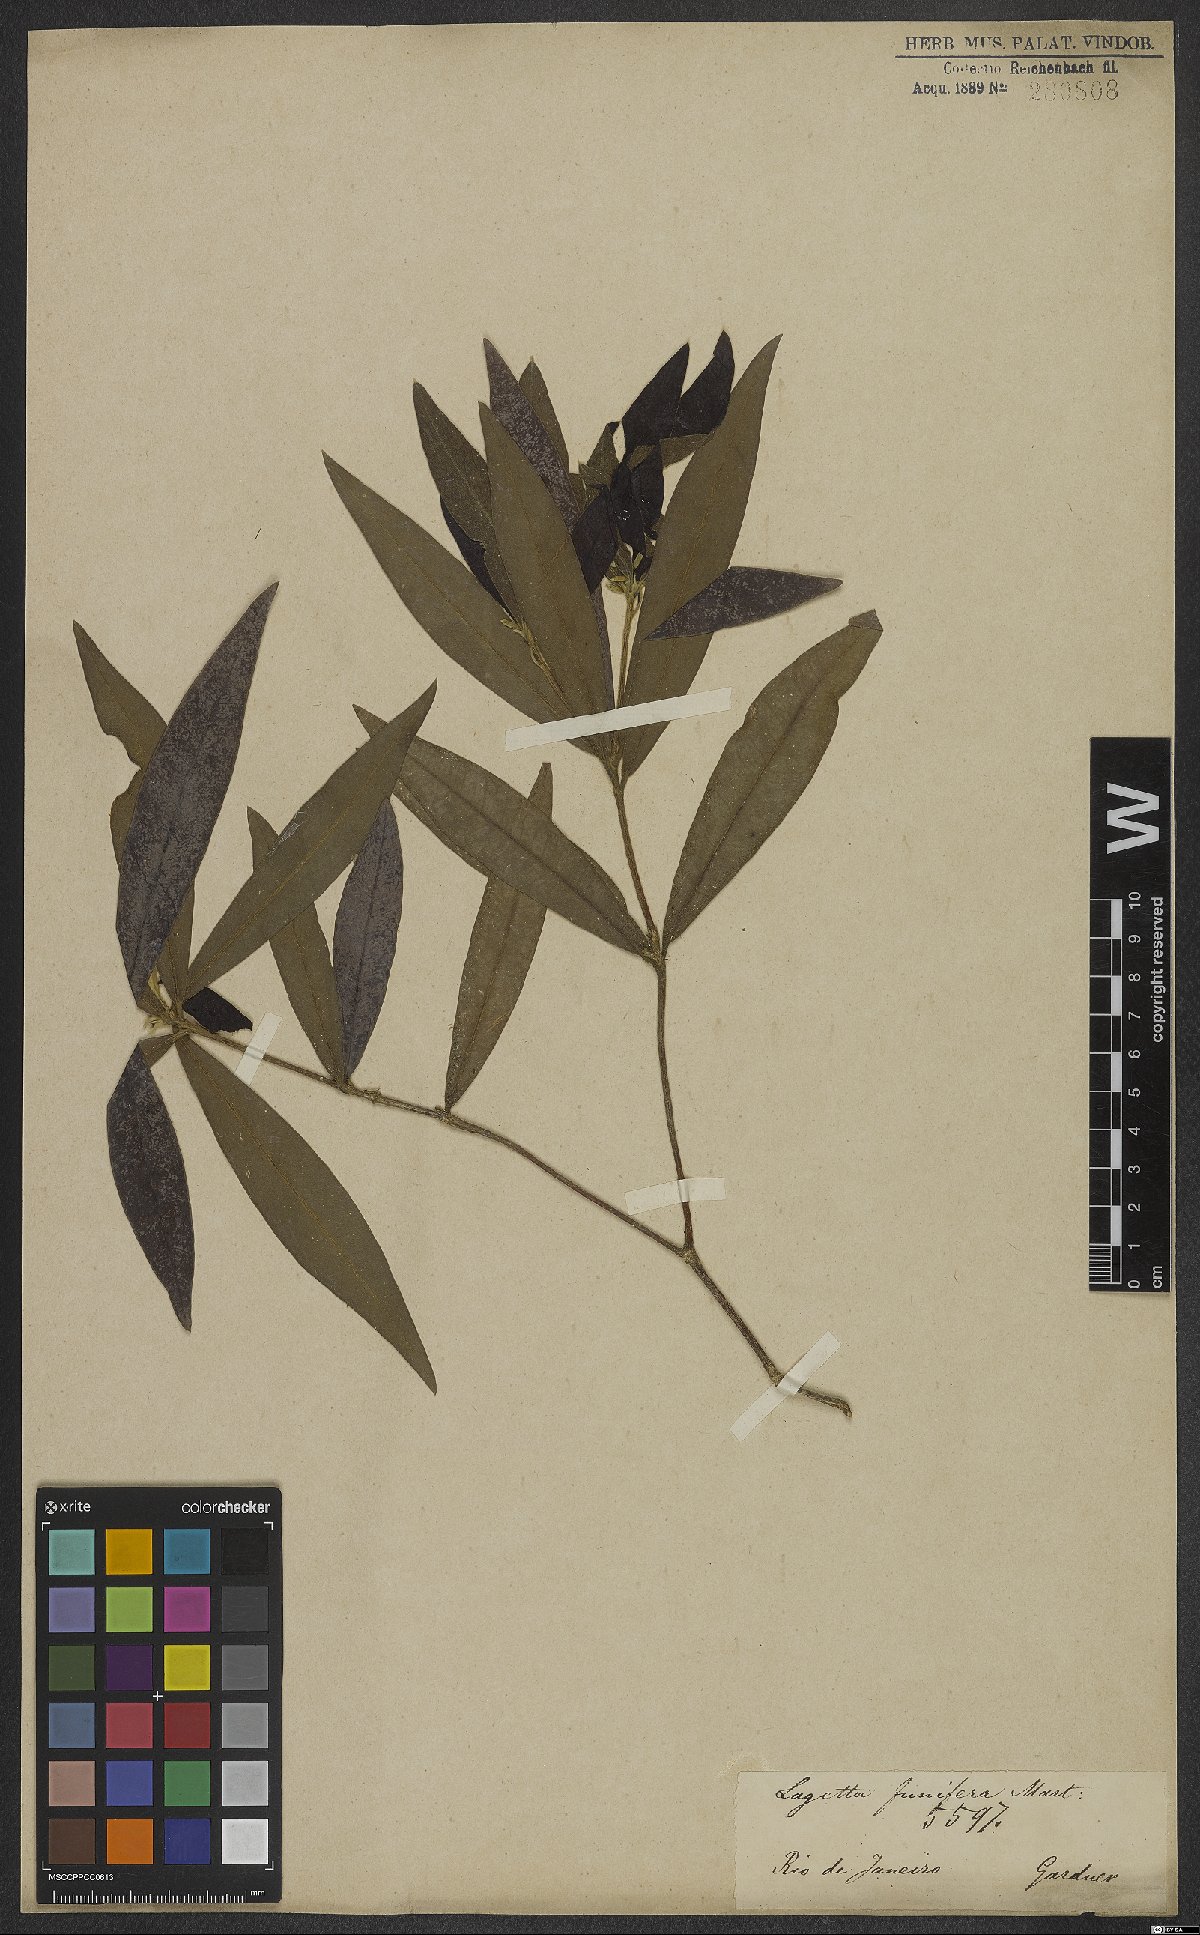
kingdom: Plantae
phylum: Tracheophyta
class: Magnoliopsida
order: Malvales
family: Thymelaeaceae
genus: Funifera
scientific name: Funifera brasiliensis
